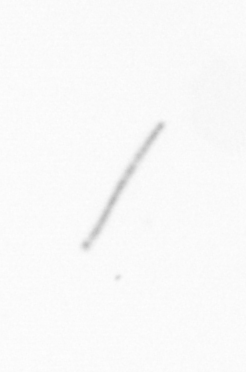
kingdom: Chromista
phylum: Ochrophyta
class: Bacillariophyceae
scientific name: Bacillariophyceae
